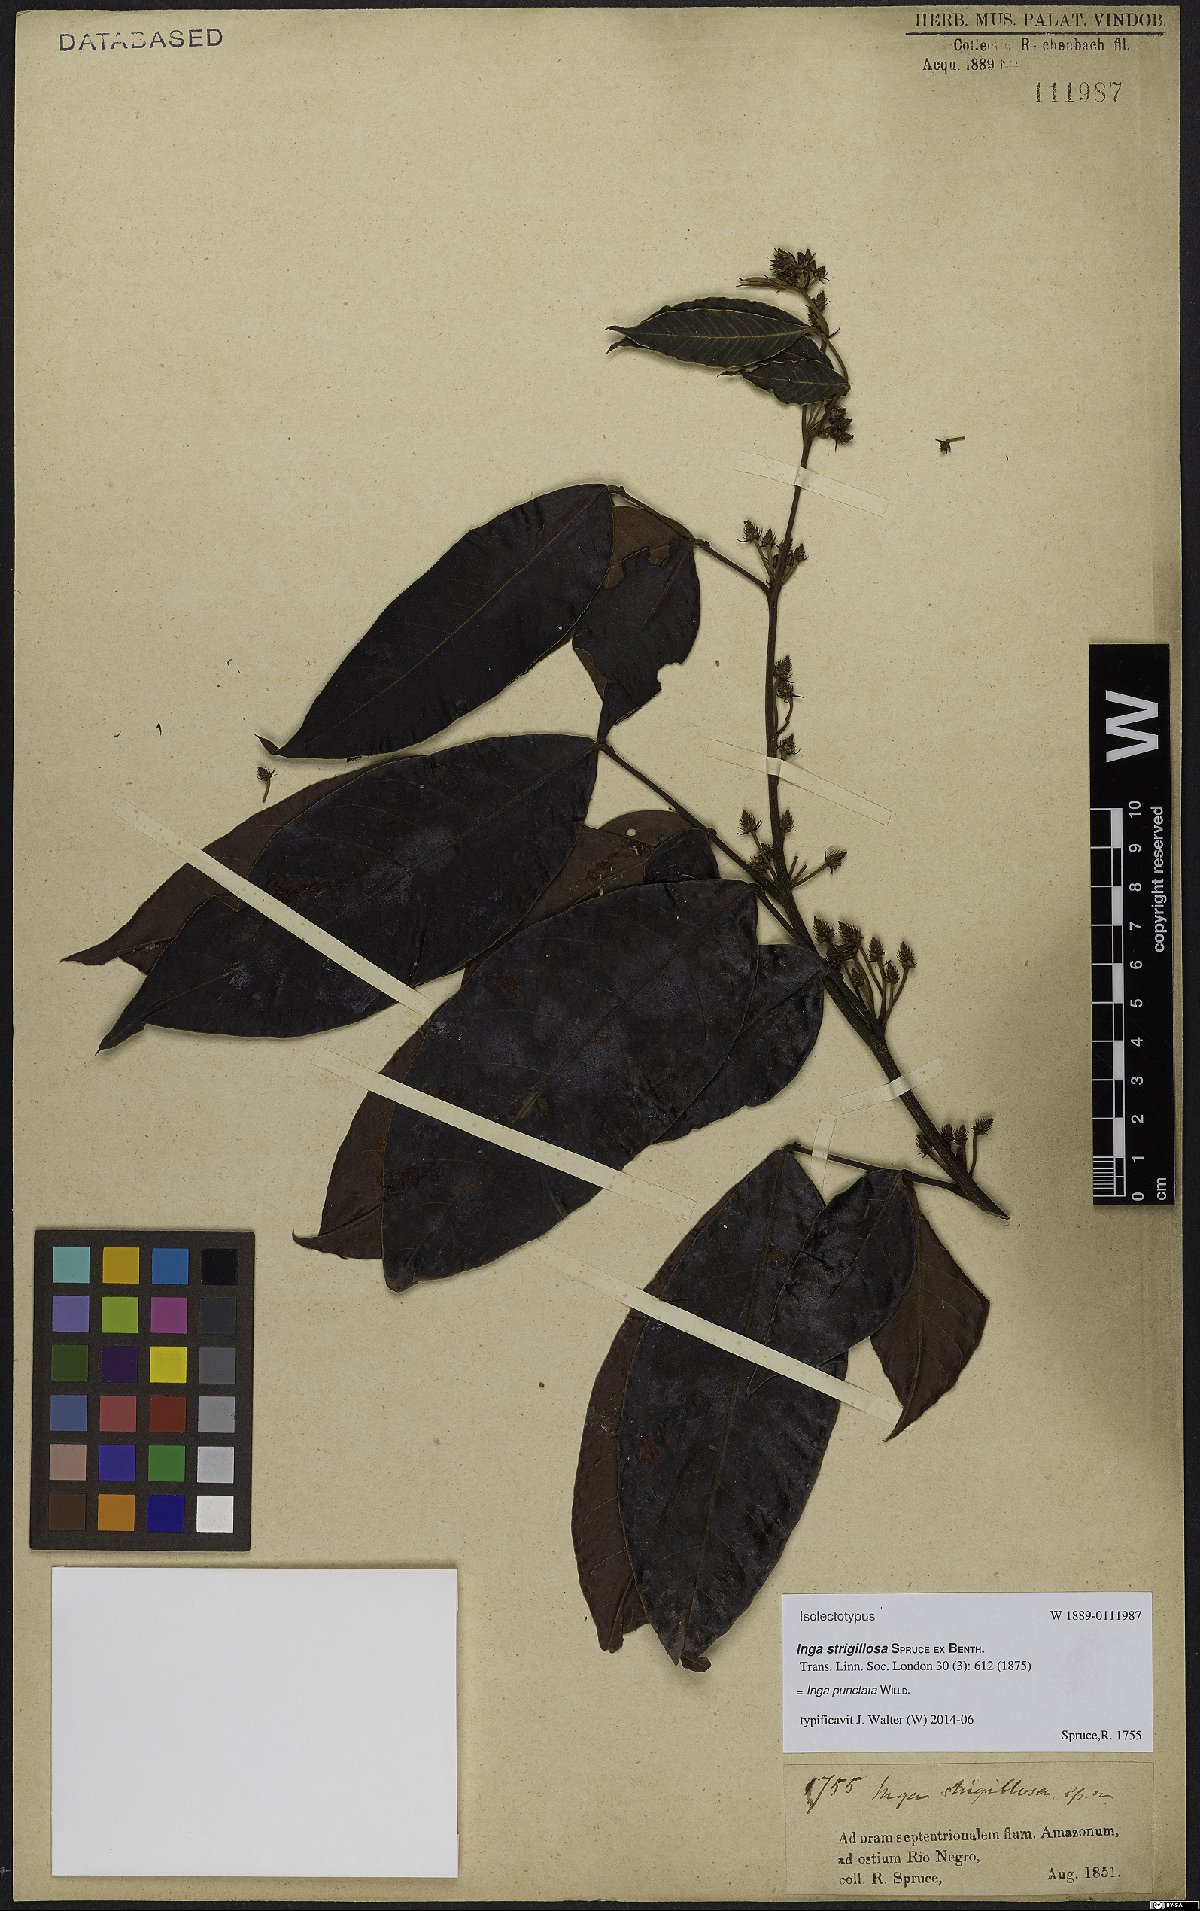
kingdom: Plantae
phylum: Tracheophyta
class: Magnoliopsida
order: Fabales
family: Fabaceae
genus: Inga
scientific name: Inga punctata
